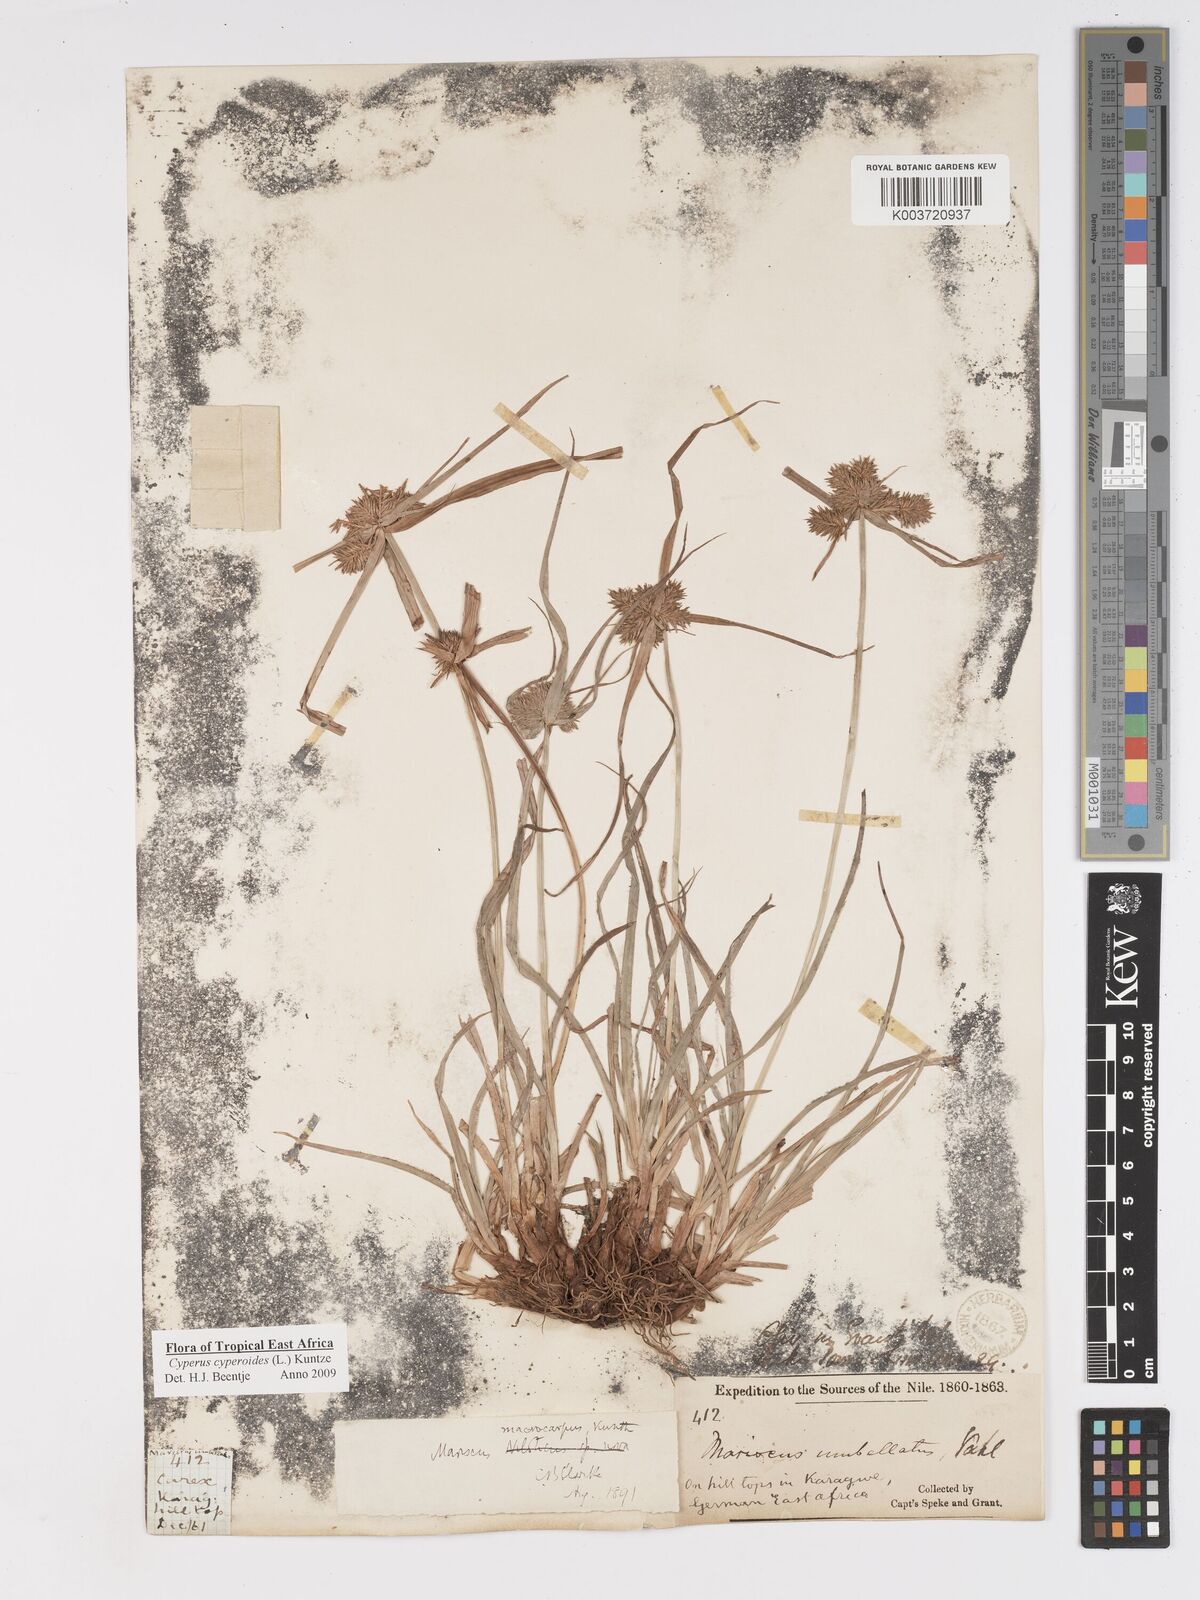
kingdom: Plantae
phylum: Tracheophyta
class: Liliopsida
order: Poales
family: Cyperaceae
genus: Cyperus
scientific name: Cyperus macrocarpus
